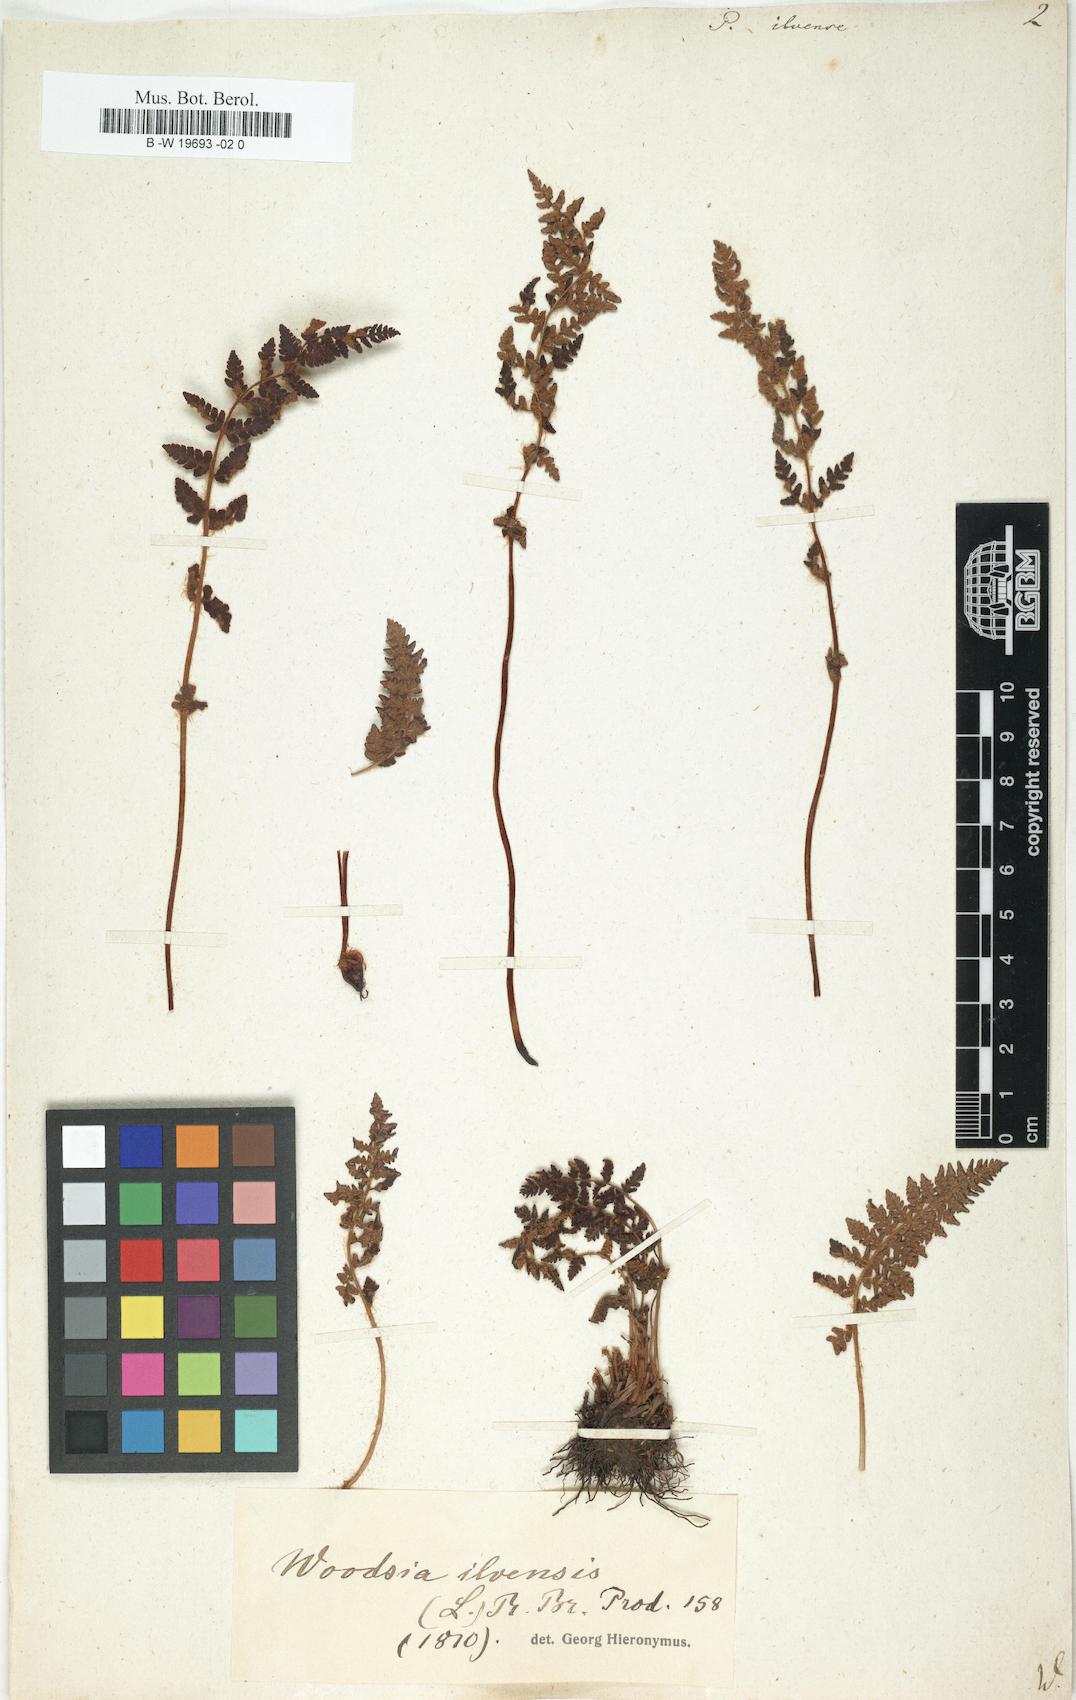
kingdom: Plantae
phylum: Tracheophyta
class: Polypodiopsida
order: Polypodiales
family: Woodsiaceae
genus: Woodsia
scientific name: Woodsia ilvensis
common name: Fragrant woodsia
